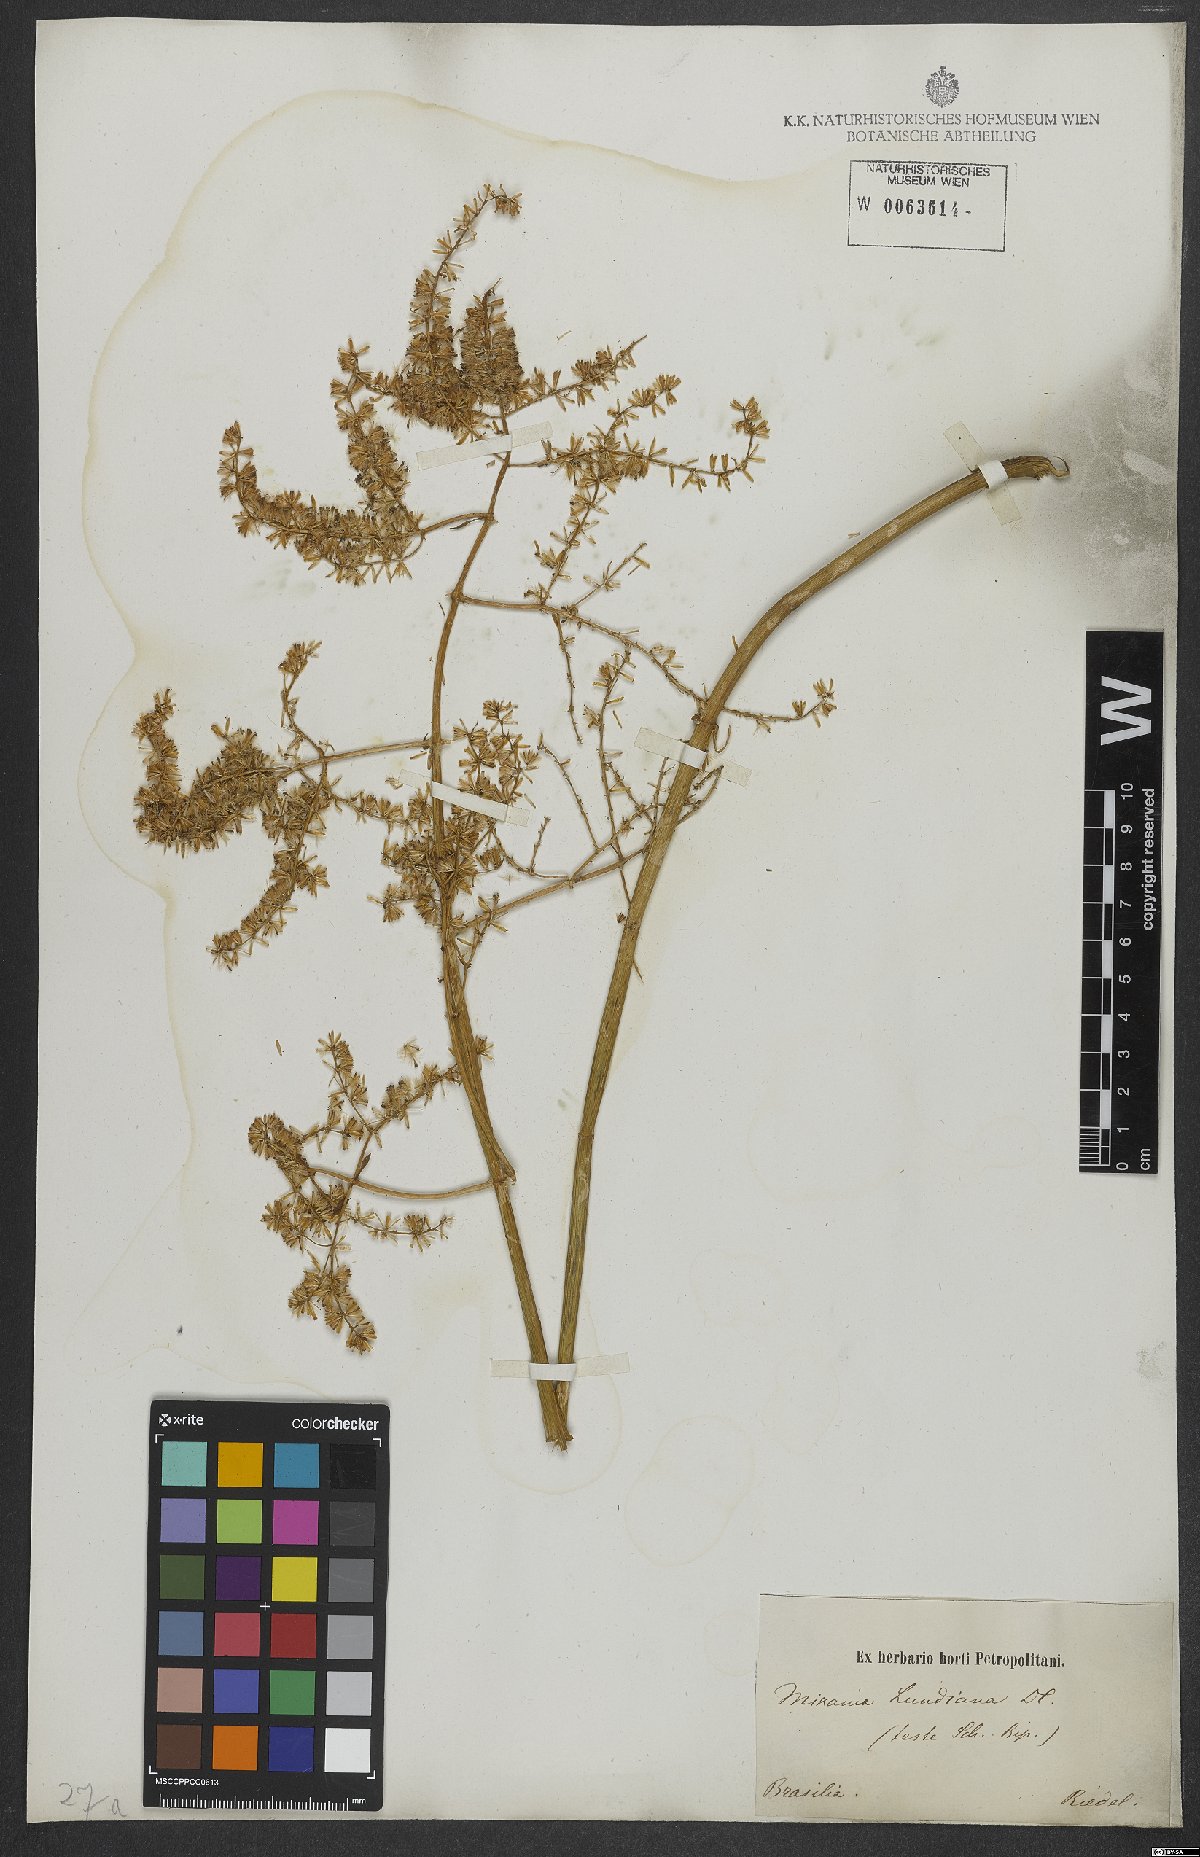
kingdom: Plantae
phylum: Tracheophyta
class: Magnoliopsida
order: Asterales
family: Asteraceae
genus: Mikania
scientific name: Mikania lundiana
